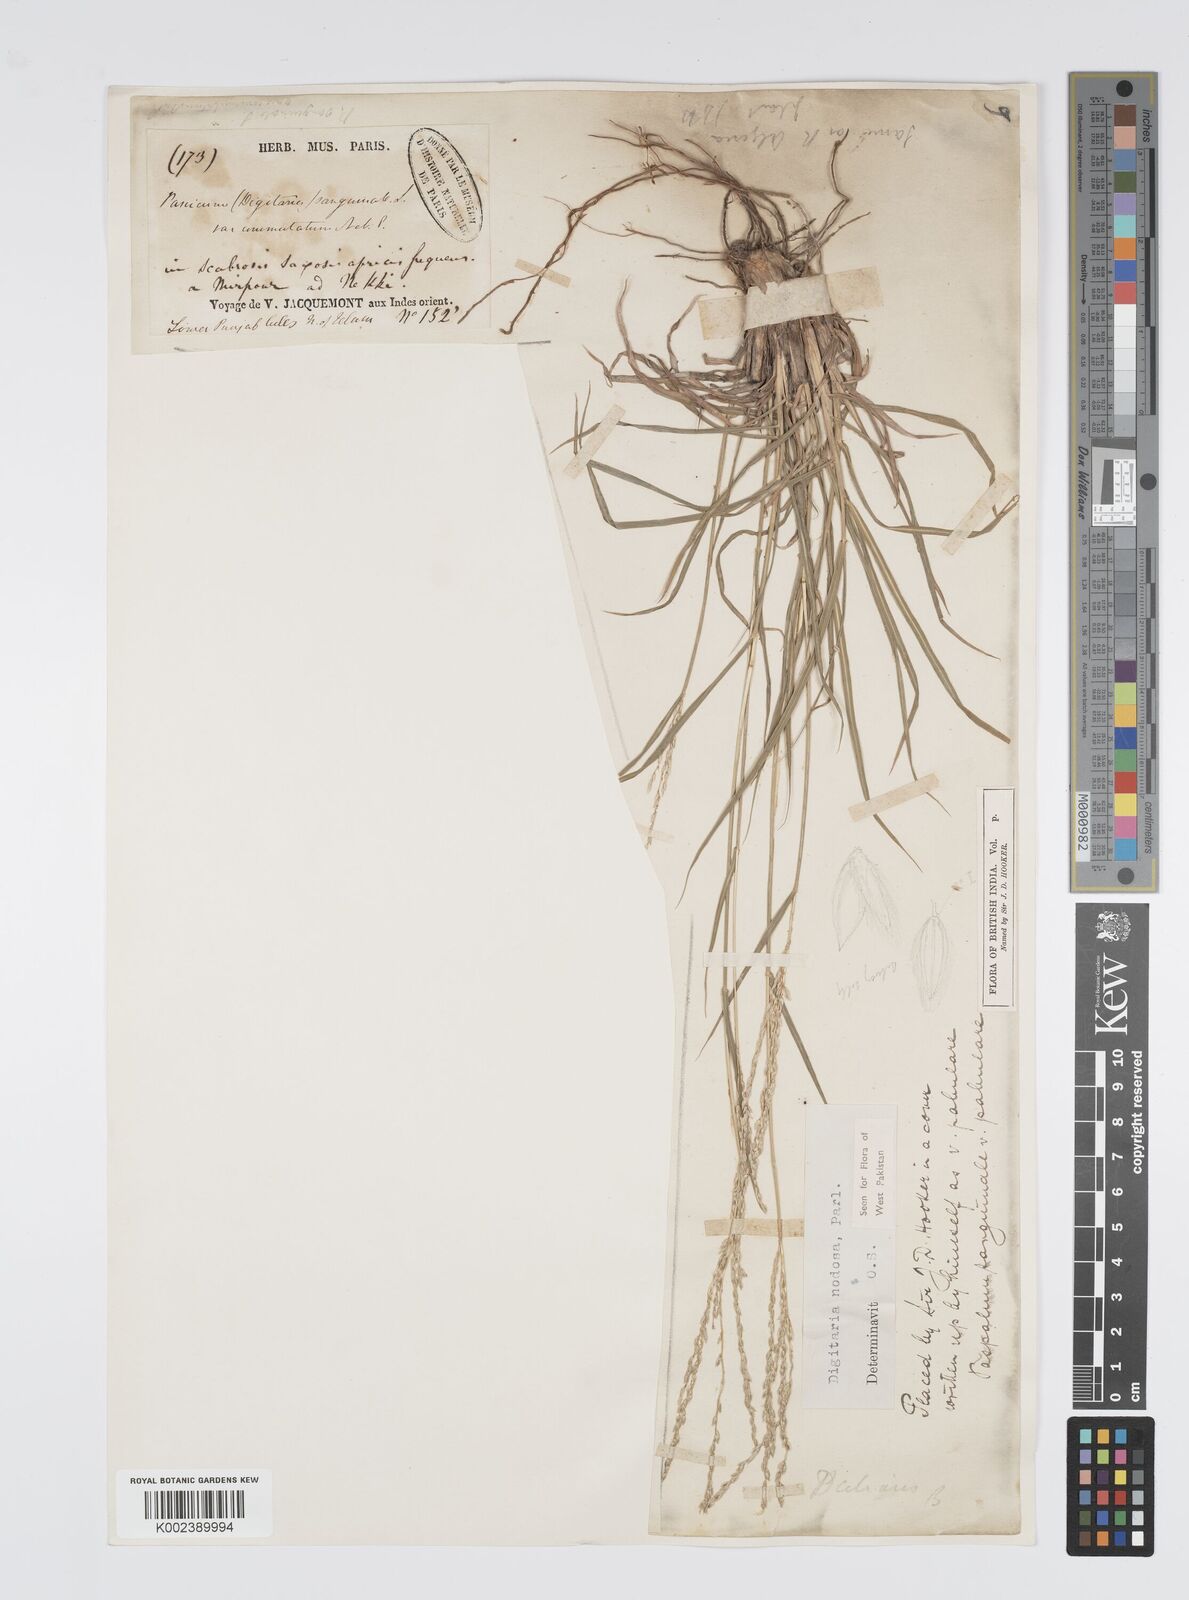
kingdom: Plantae
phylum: Tracheophyta
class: Liliopsida
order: Poales
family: Poaceae
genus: Digitaria
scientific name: Digitaria nodosa
